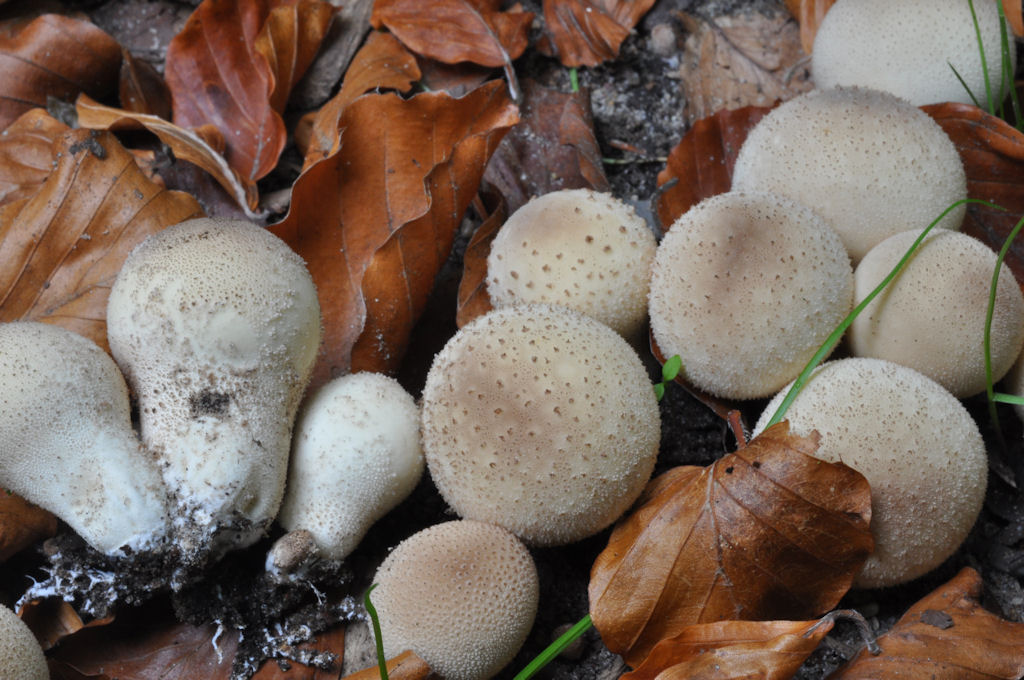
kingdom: Fungi
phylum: Basidiomycota
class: Agaricomycetes
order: Agaricales
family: Lycoperdaceae
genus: Apioperdon
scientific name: Apioperdon pyriforme
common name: pære-støvbold
